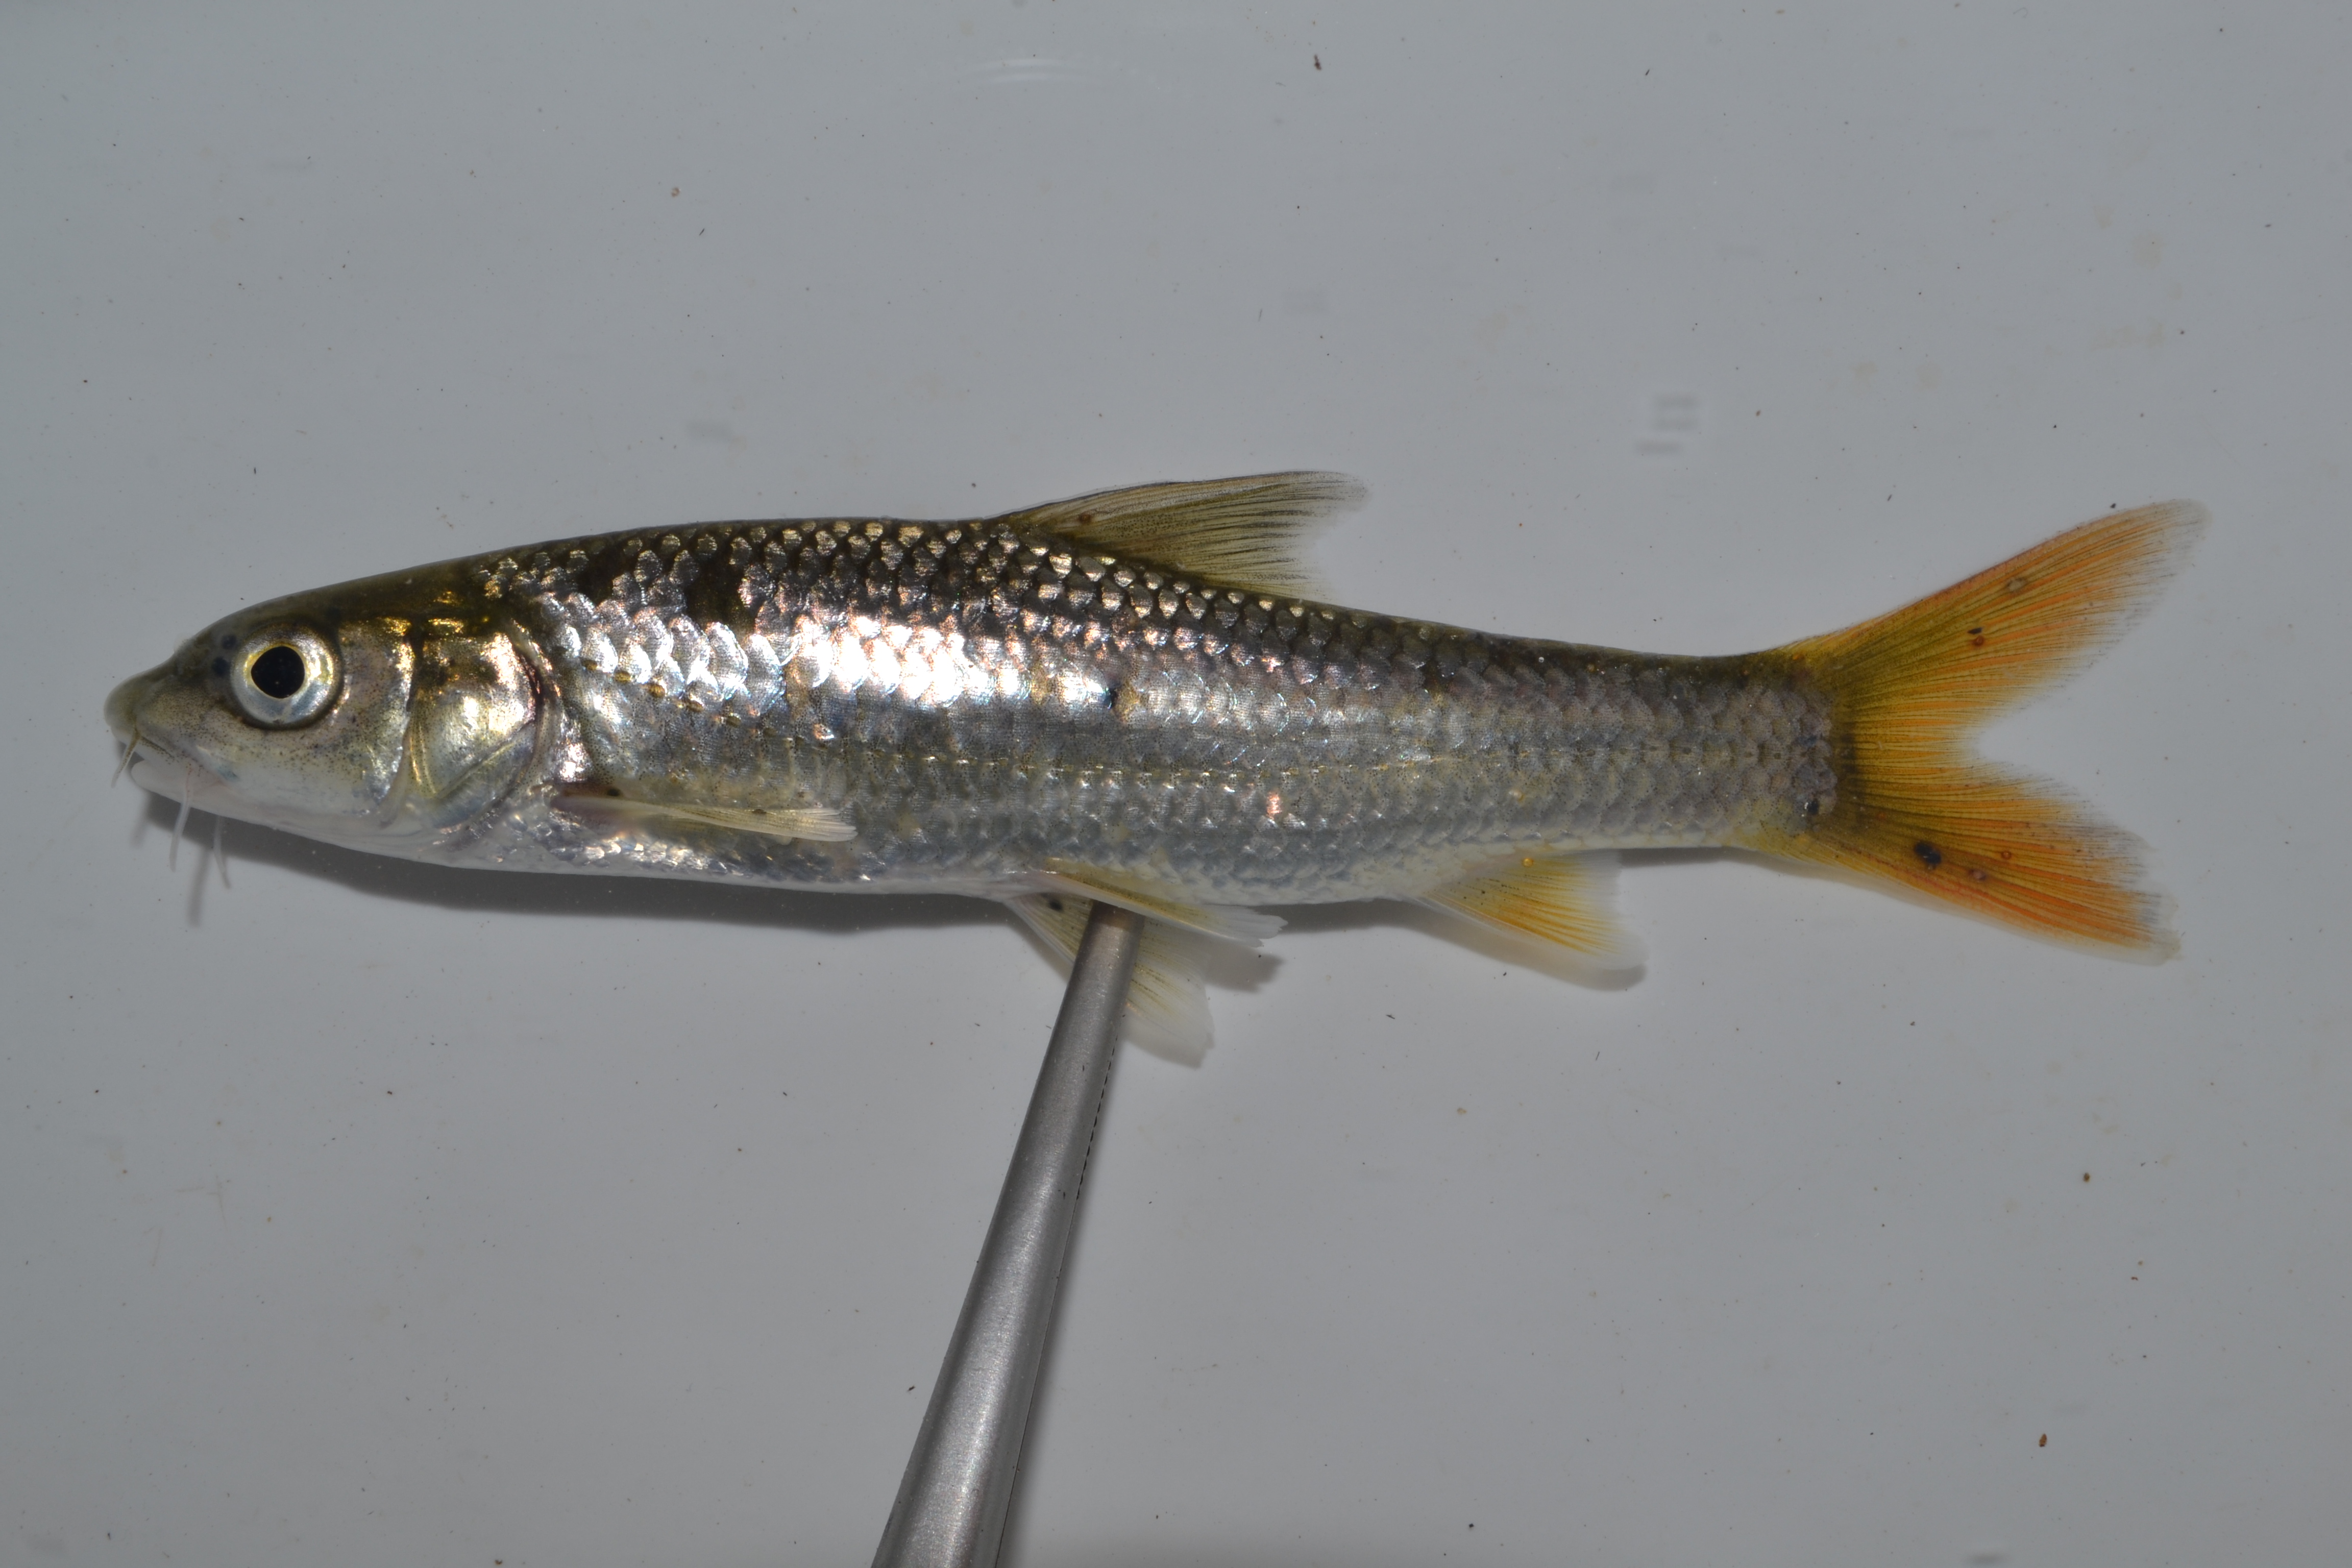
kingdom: Animalia
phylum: Chordata
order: Cypriniformes
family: Cyprinidae
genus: Labeobarbus
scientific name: Labeobarbus polylepis
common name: Bushveld smallscale yellowfish
